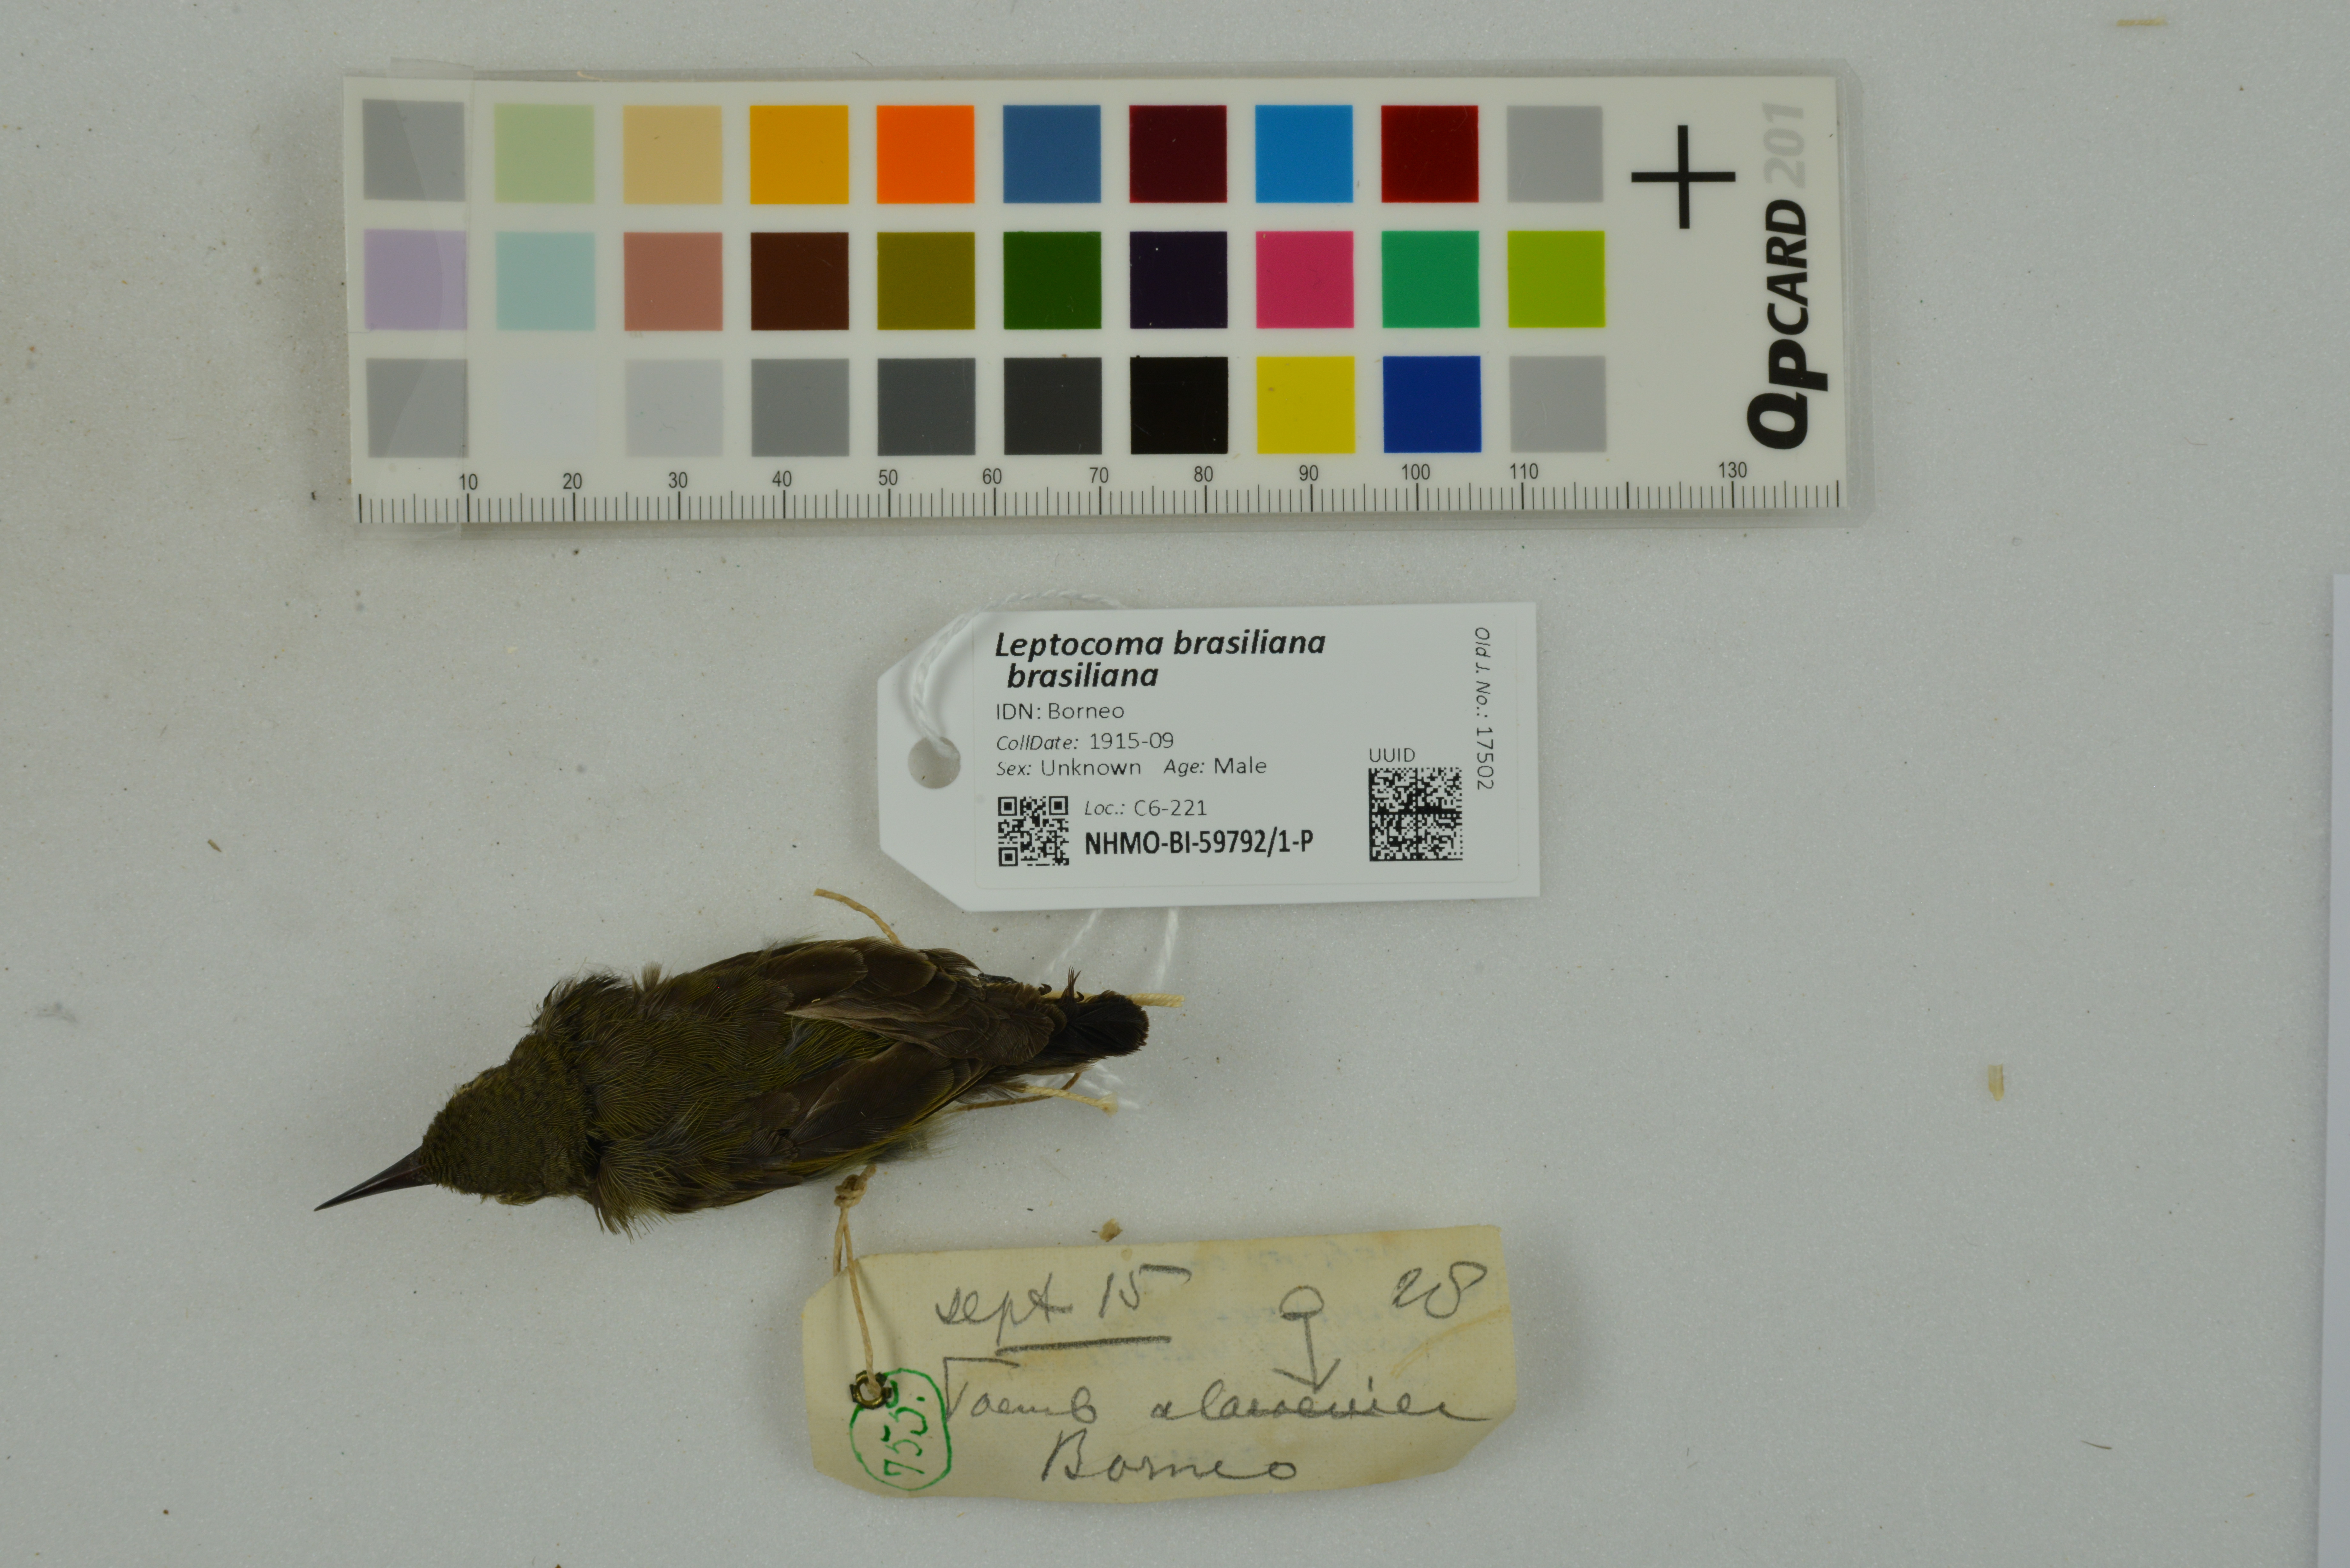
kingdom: Animalia
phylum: Chordata
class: Aves
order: Passeriformes
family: Nectariniidae
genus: Leptocoma
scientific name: Leptocoma brasiliana
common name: Van hasselt's sunbird
